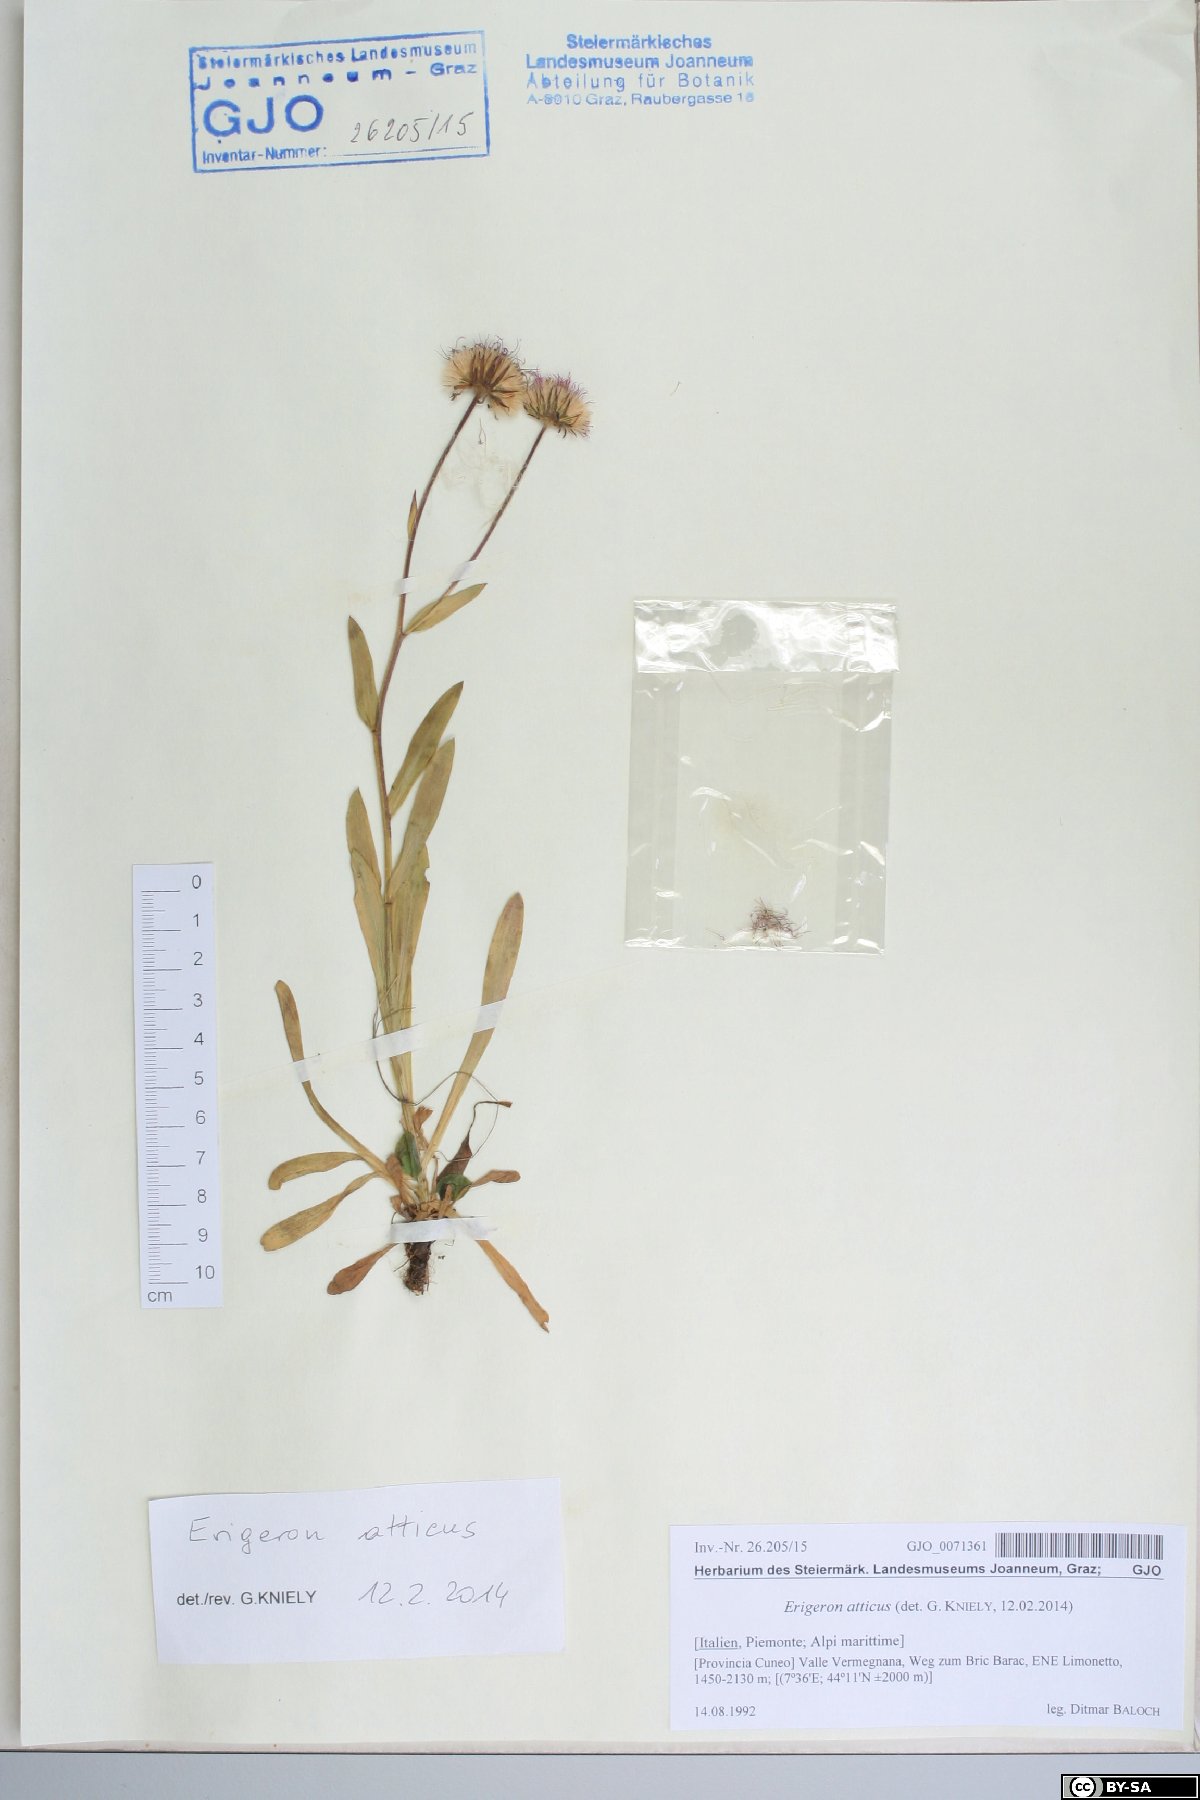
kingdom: Plantae
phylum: Tracheophyta
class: Magnoliopsida
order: Asterales
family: Asteraceae
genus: Erigeron
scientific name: Erigeron atticus
